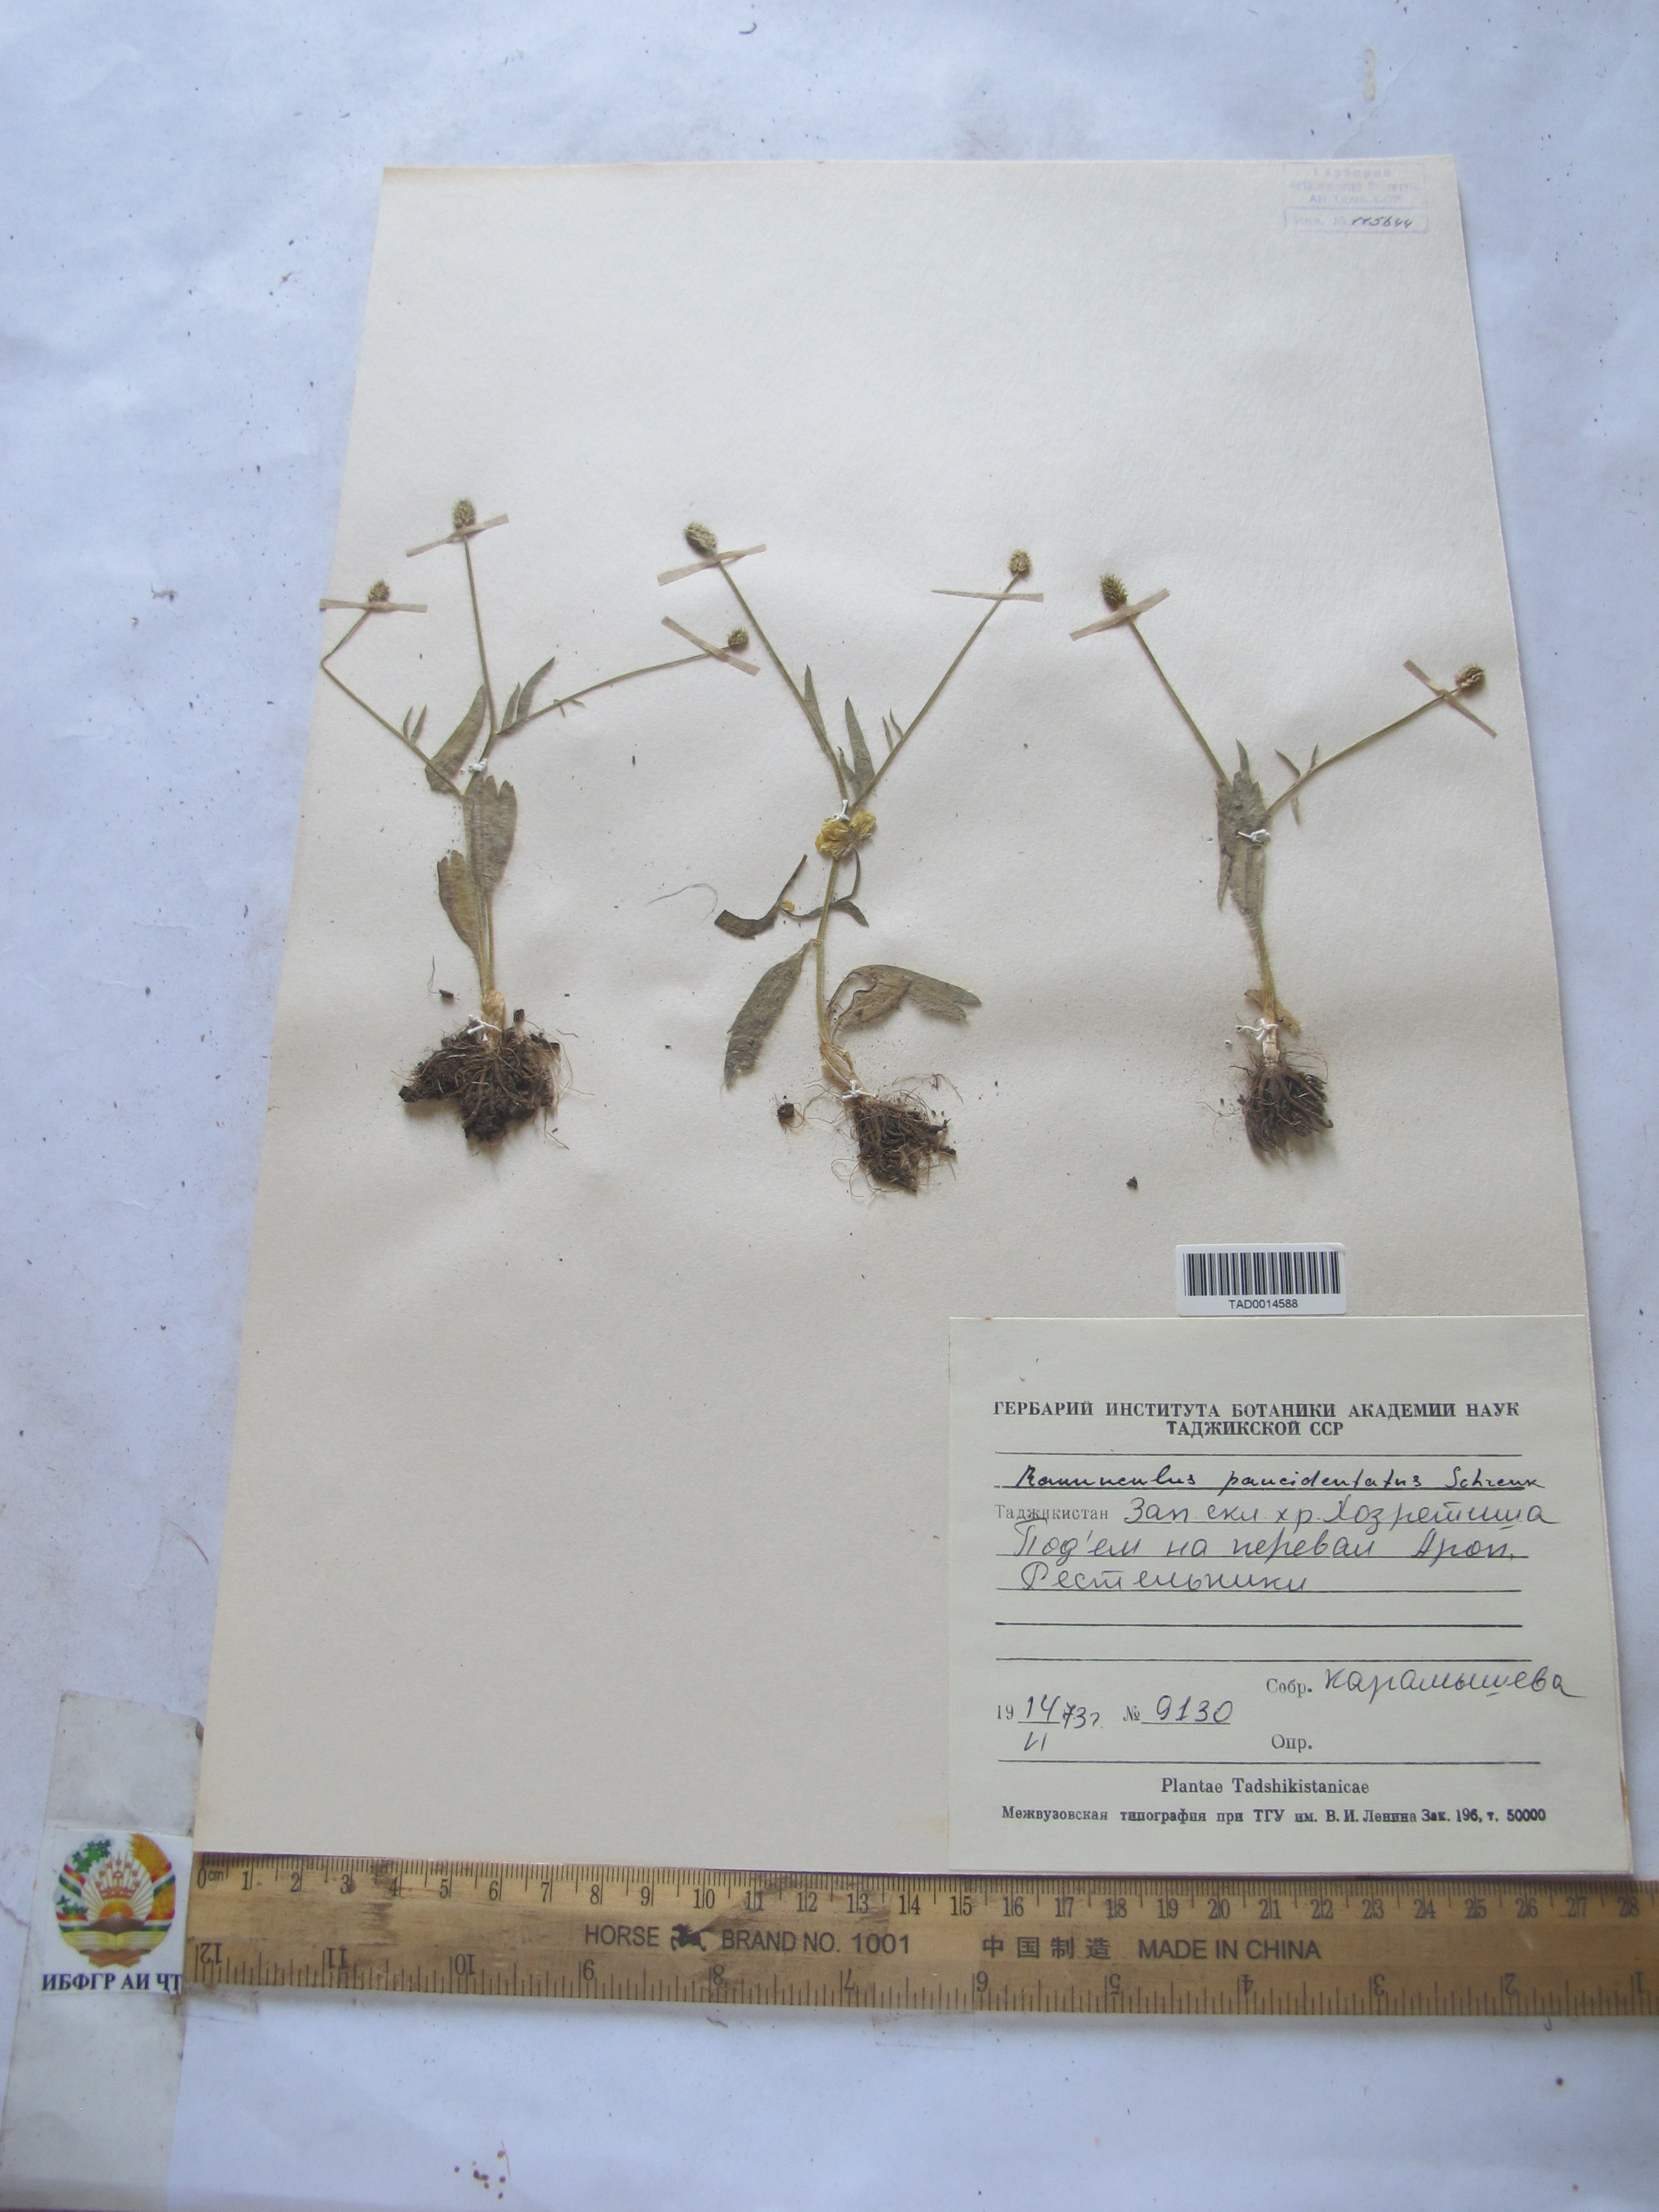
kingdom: Plantae
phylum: Tracheophyta
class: Magnoliopsida
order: Ranunculales
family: Ranunculaceae
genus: Ranunculus
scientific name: Ranunculus paucidentatus
